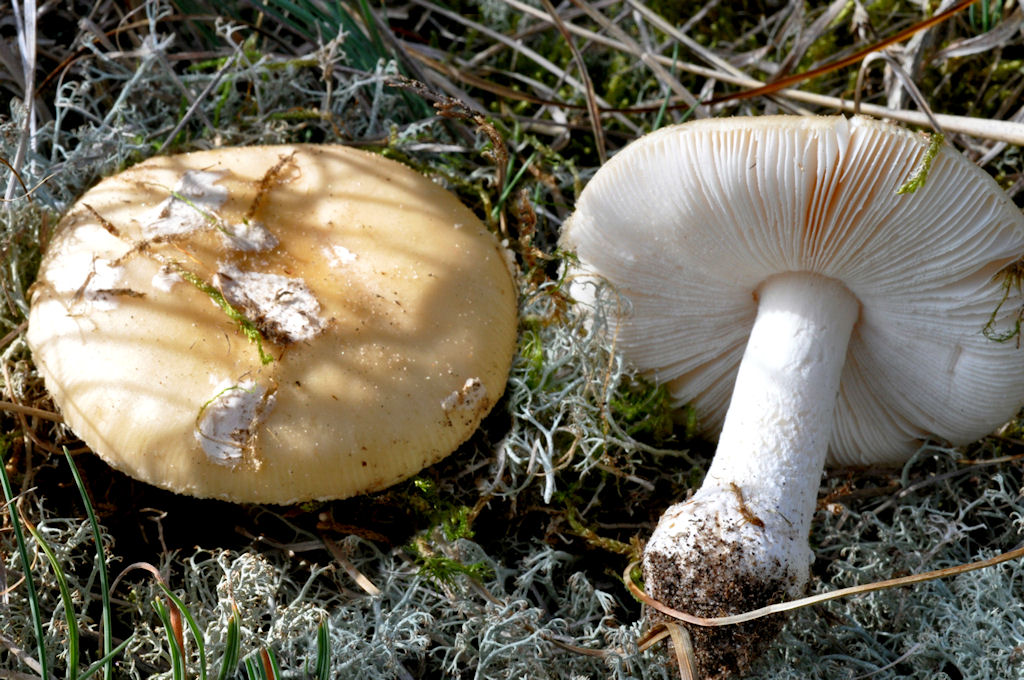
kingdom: Fungi
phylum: Basidiomycota
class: Agaricomycetes
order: Agaricales
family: Amanitaceae
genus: Amanita
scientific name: Amanita gemmata
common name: okkergul fluesvamp
